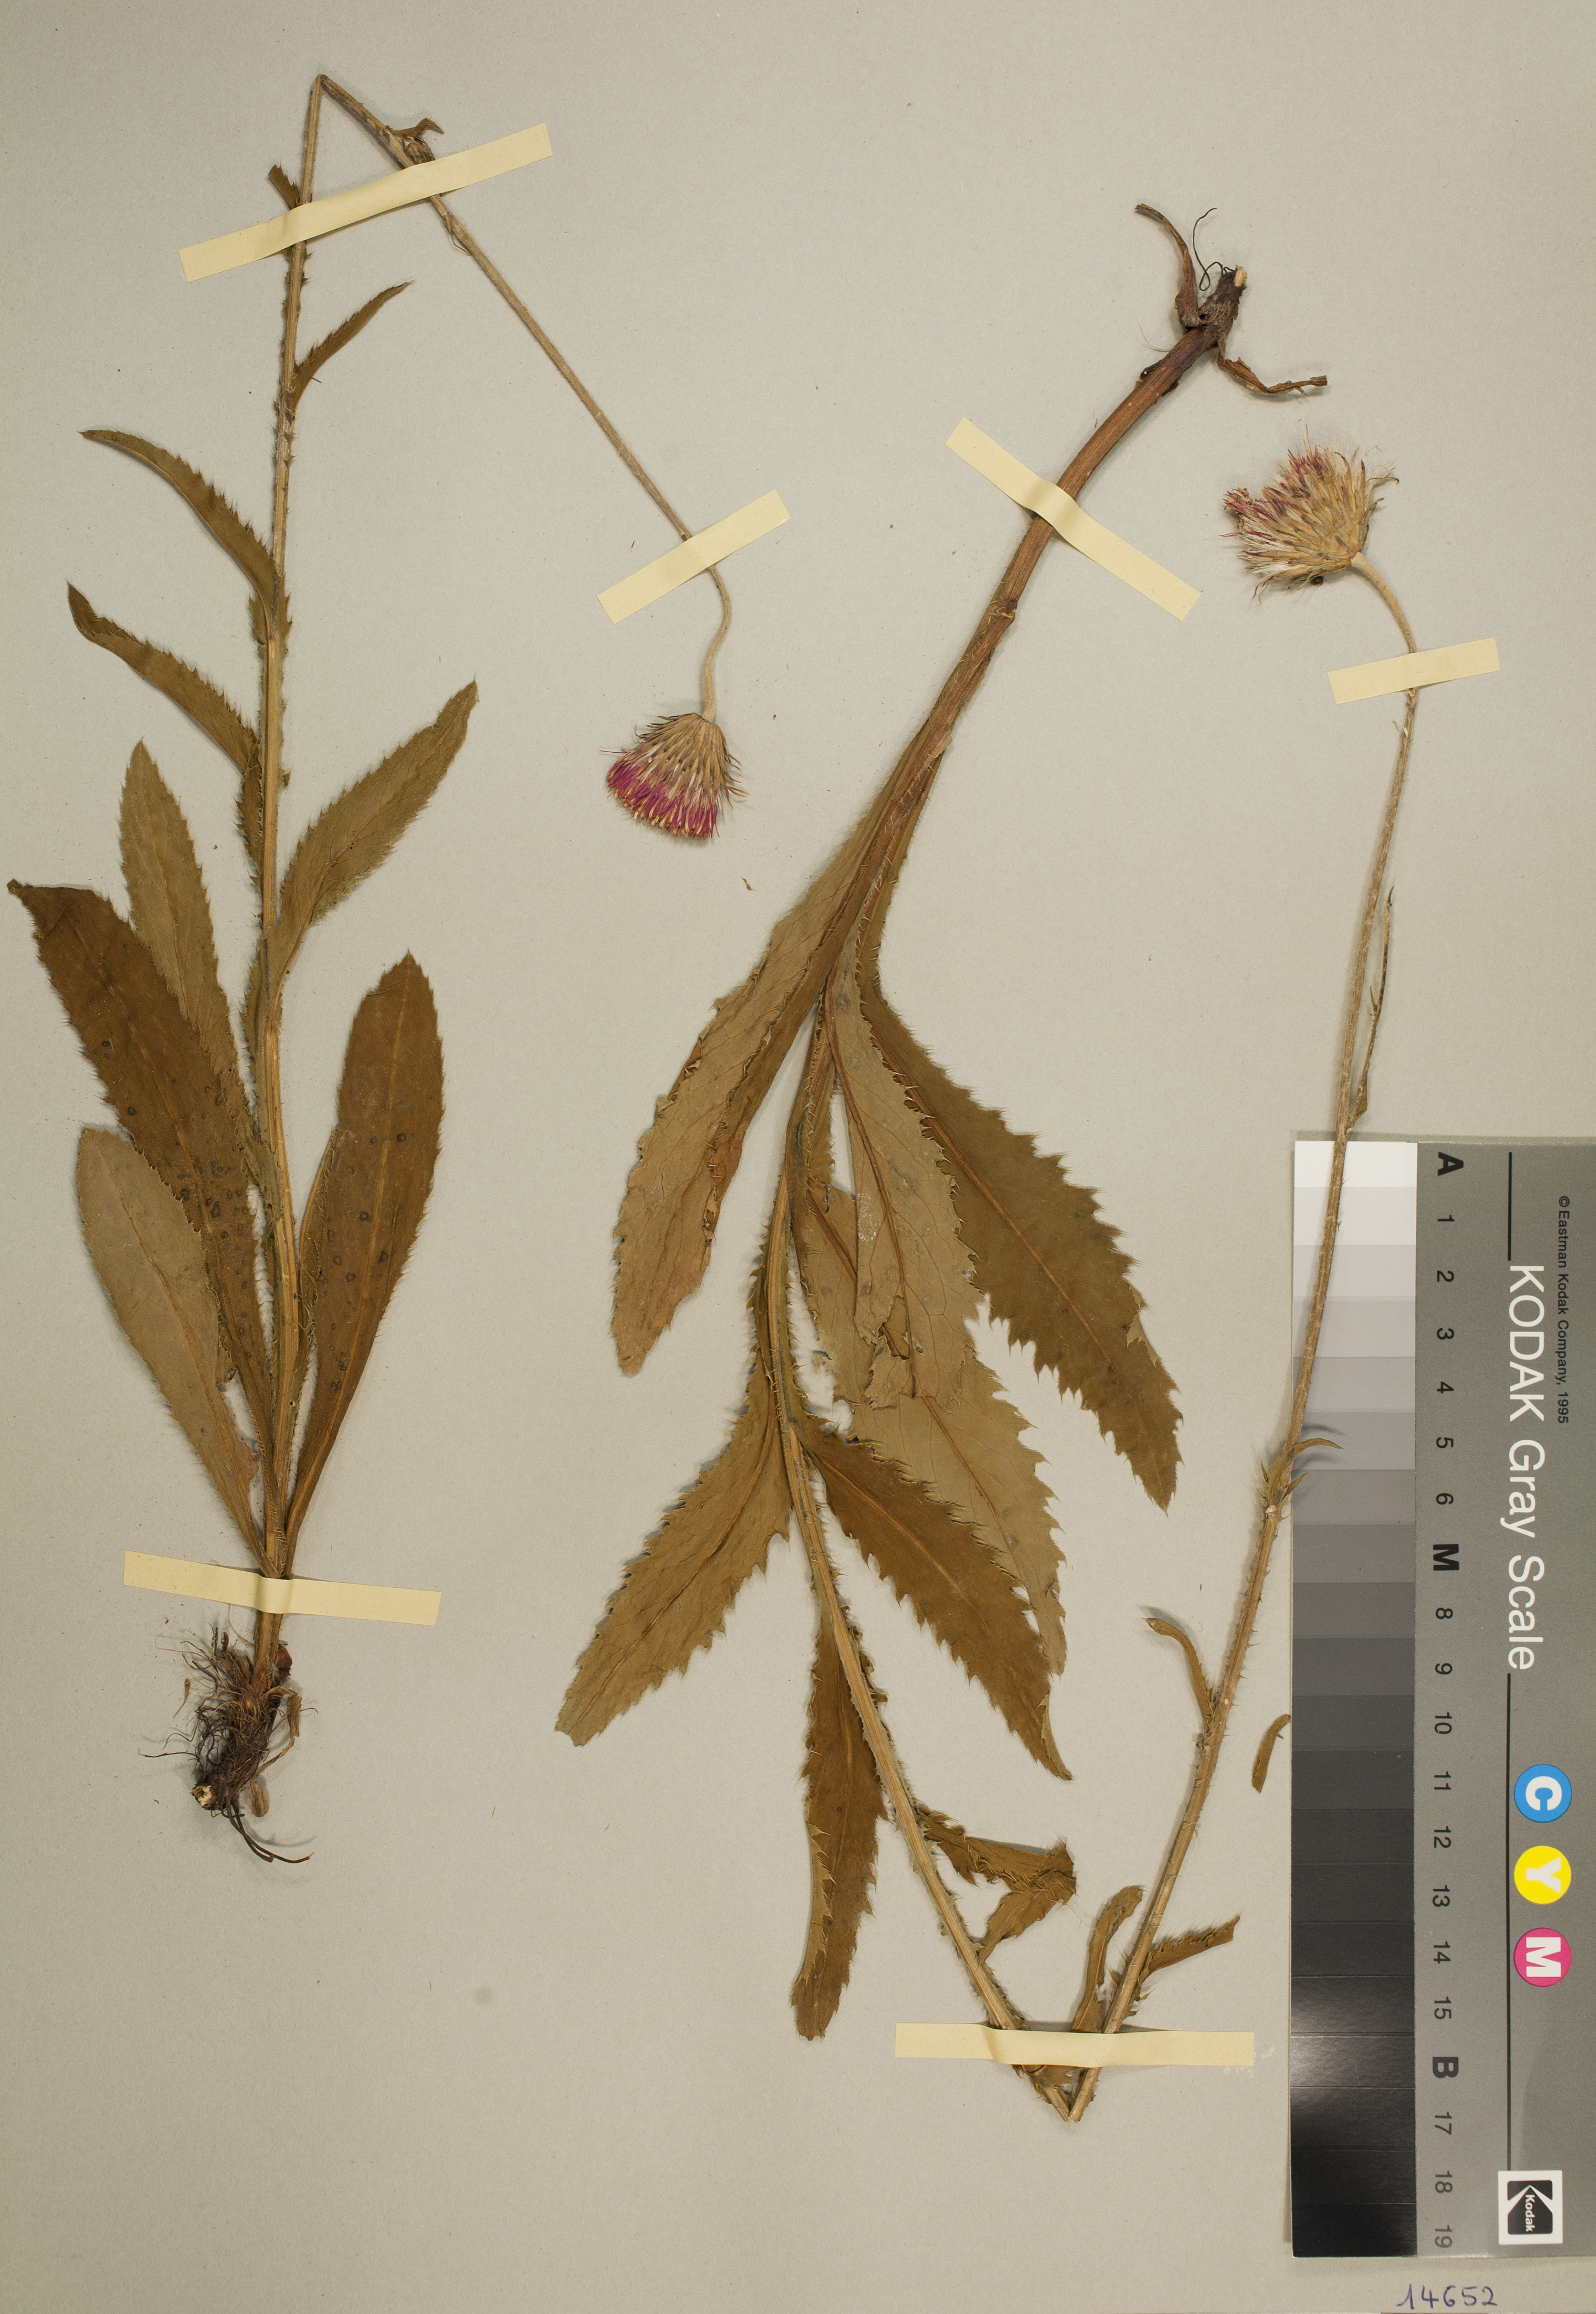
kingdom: Plantae
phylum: Tracheophyta
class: Magnoliopsida
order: Asterales
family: Asteraceae
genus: Carduus
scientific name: Carduus defloratus
